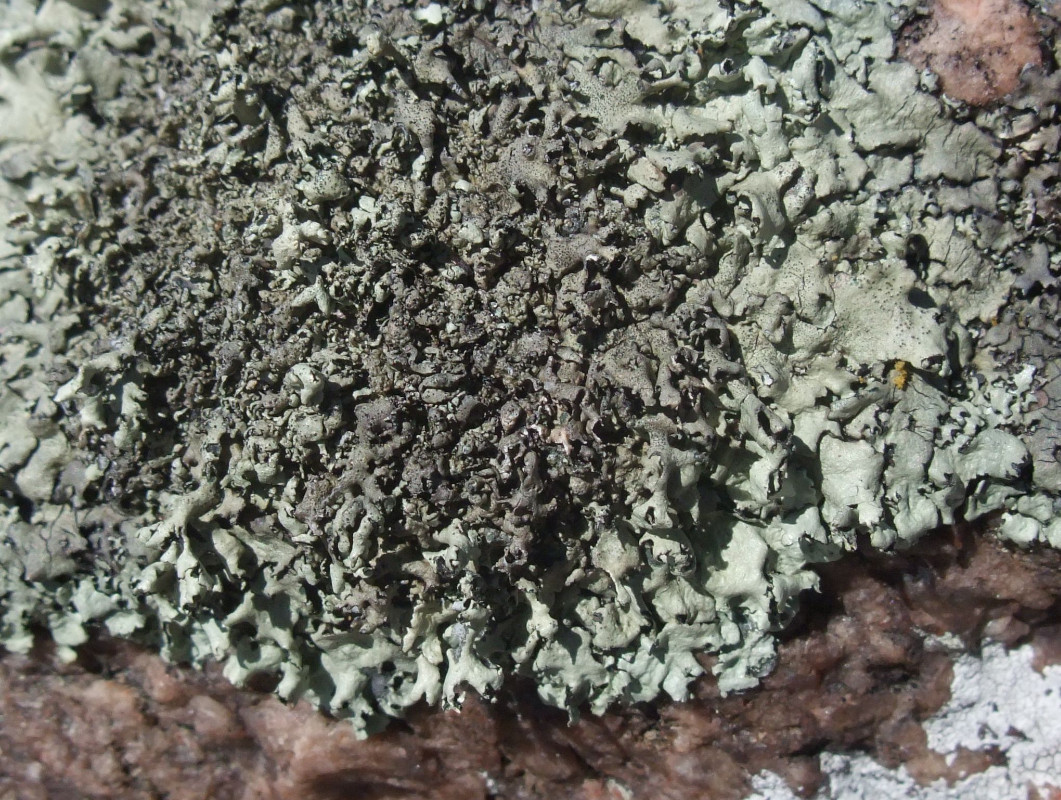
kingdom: Fungi
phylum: Ascomycota
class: Lecanoromycetes
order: Lecanorales
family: Parmeliaceae
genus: Xanthoparmelia
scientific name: Xanthoparmelia stenophylla
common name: Shingled rock shield
